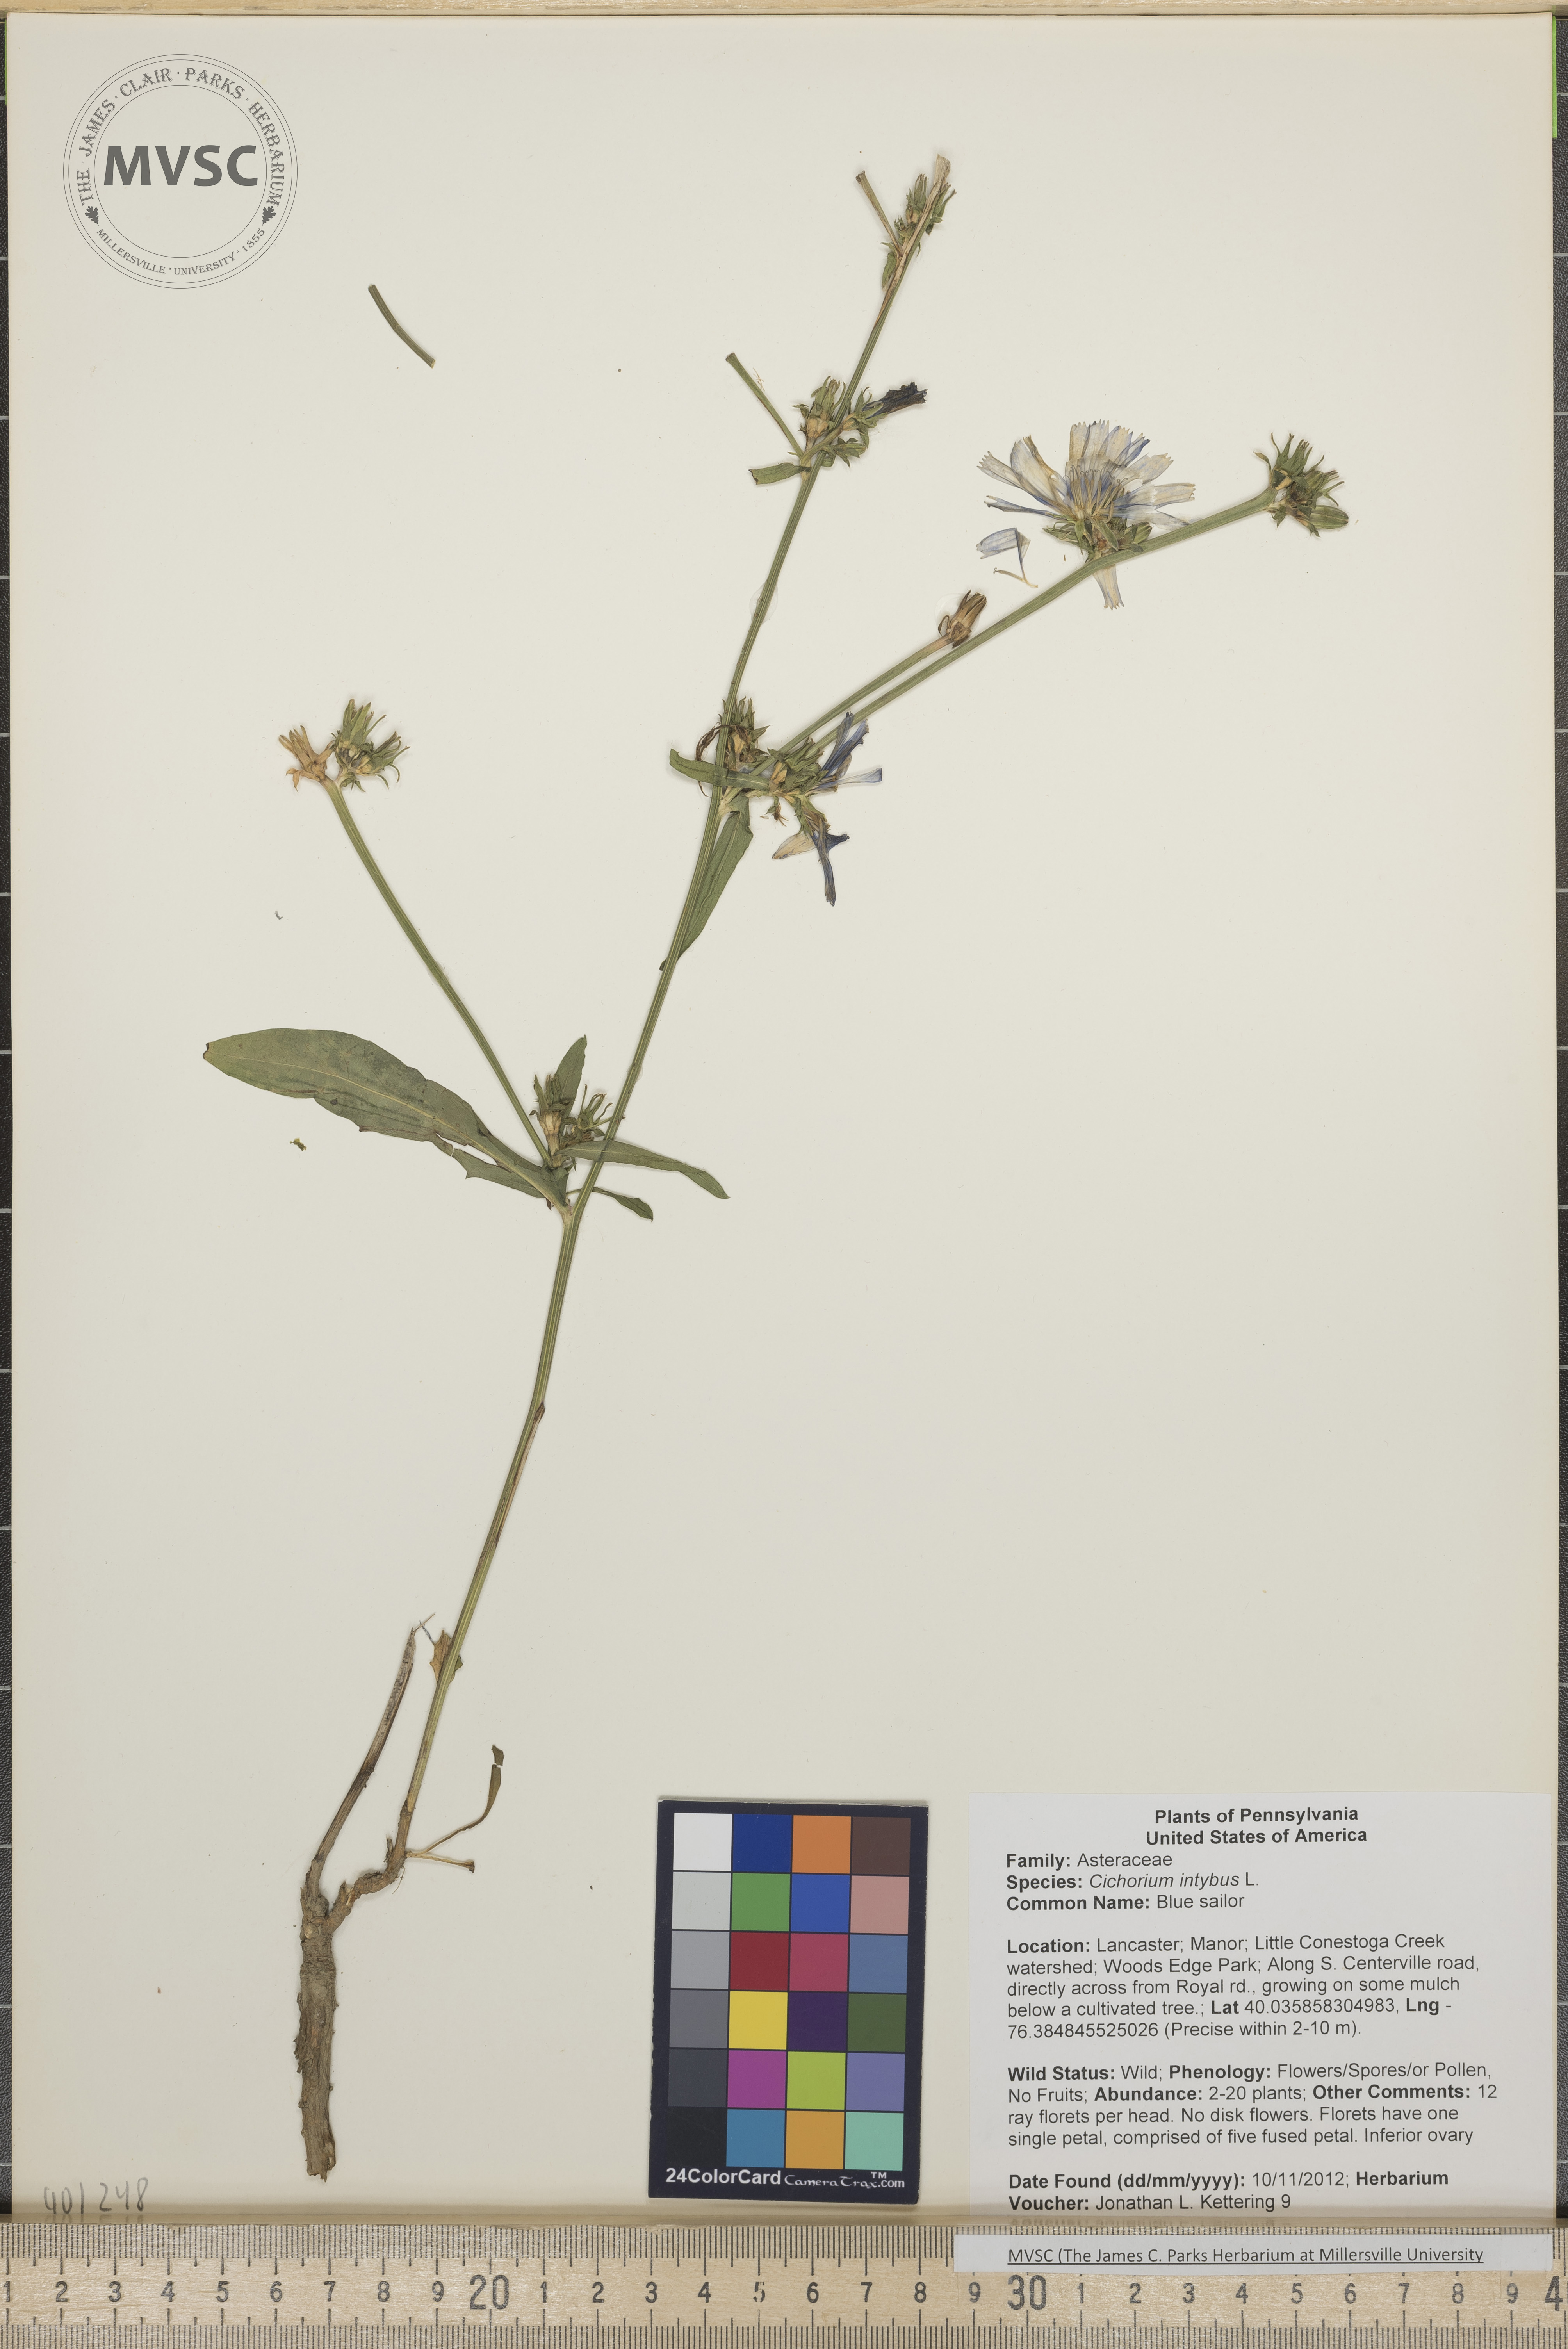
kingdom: Plantae
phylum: Tracheophyta
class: Magnoliopsida
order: Asterales
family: Asteraceae
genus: Cichorium
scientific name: Cichorium intybus
